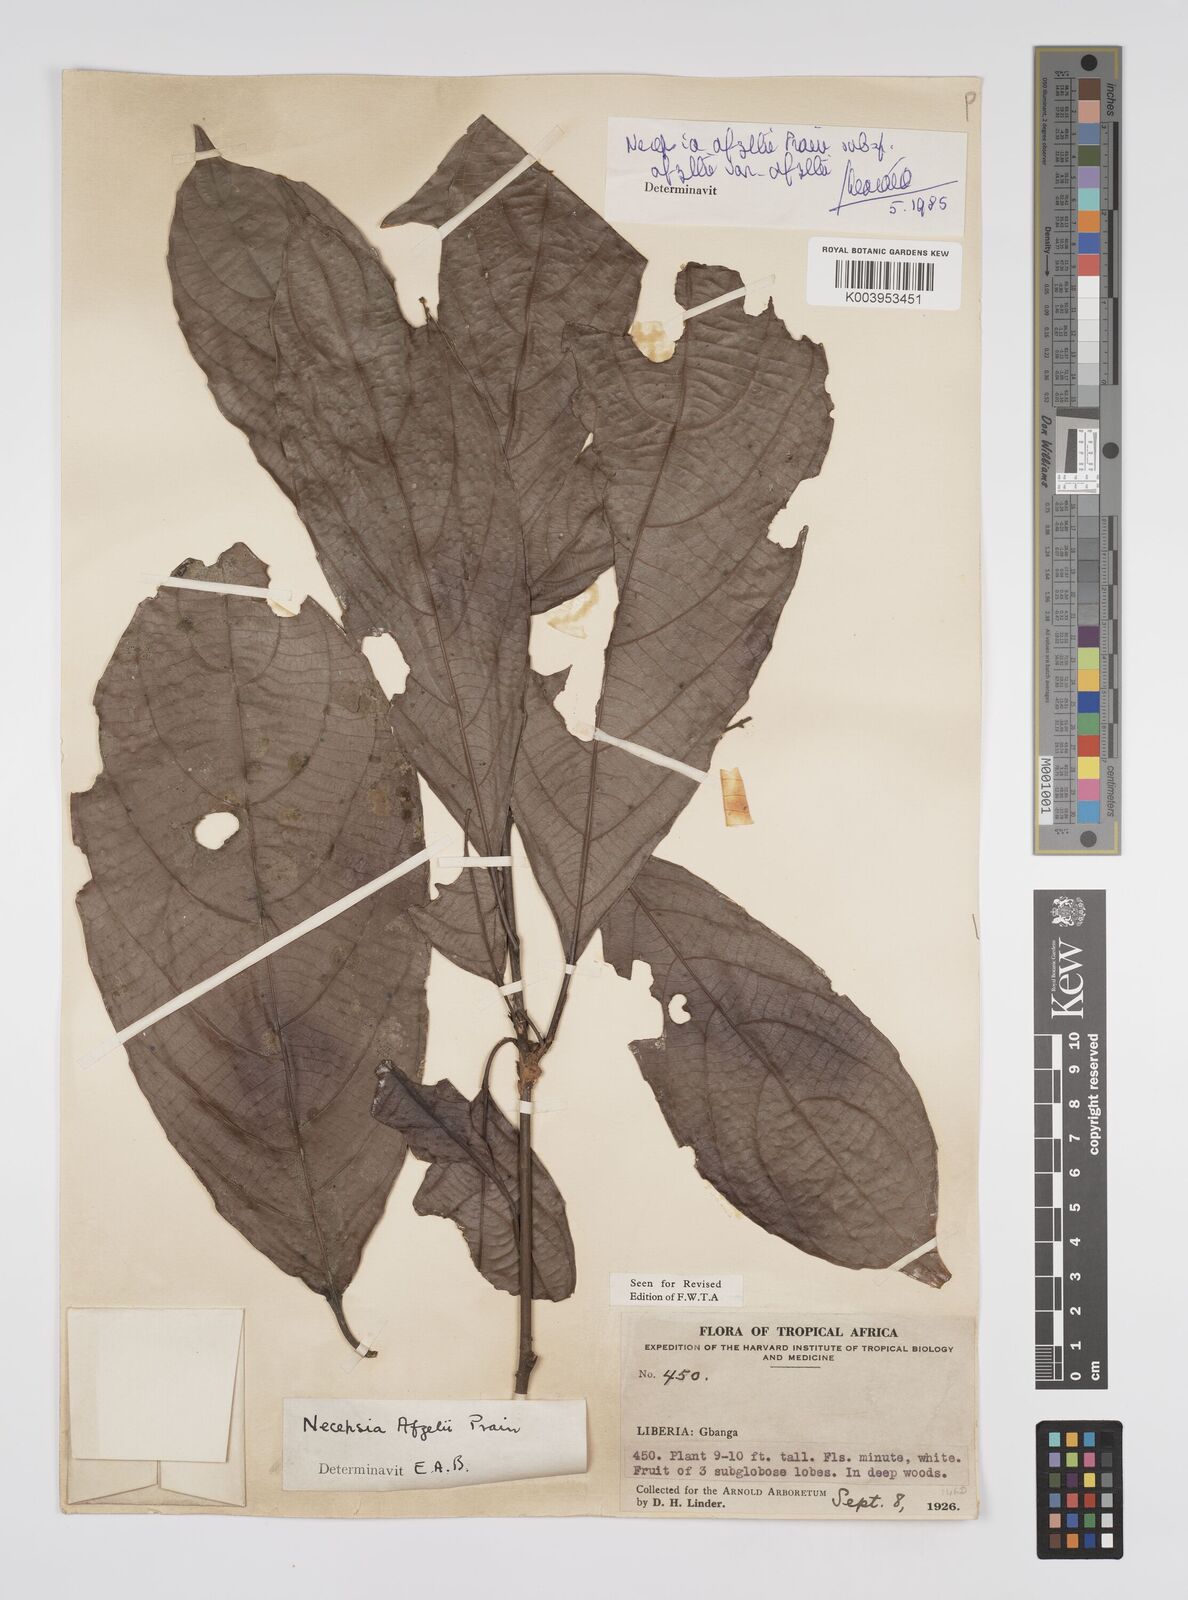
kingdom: Plantae
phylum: Tracheophyta
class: Magnoliopsida
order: Malpighiales
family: Euphorbiaceae
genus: Necepsia
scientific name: Necepsia afzelii
